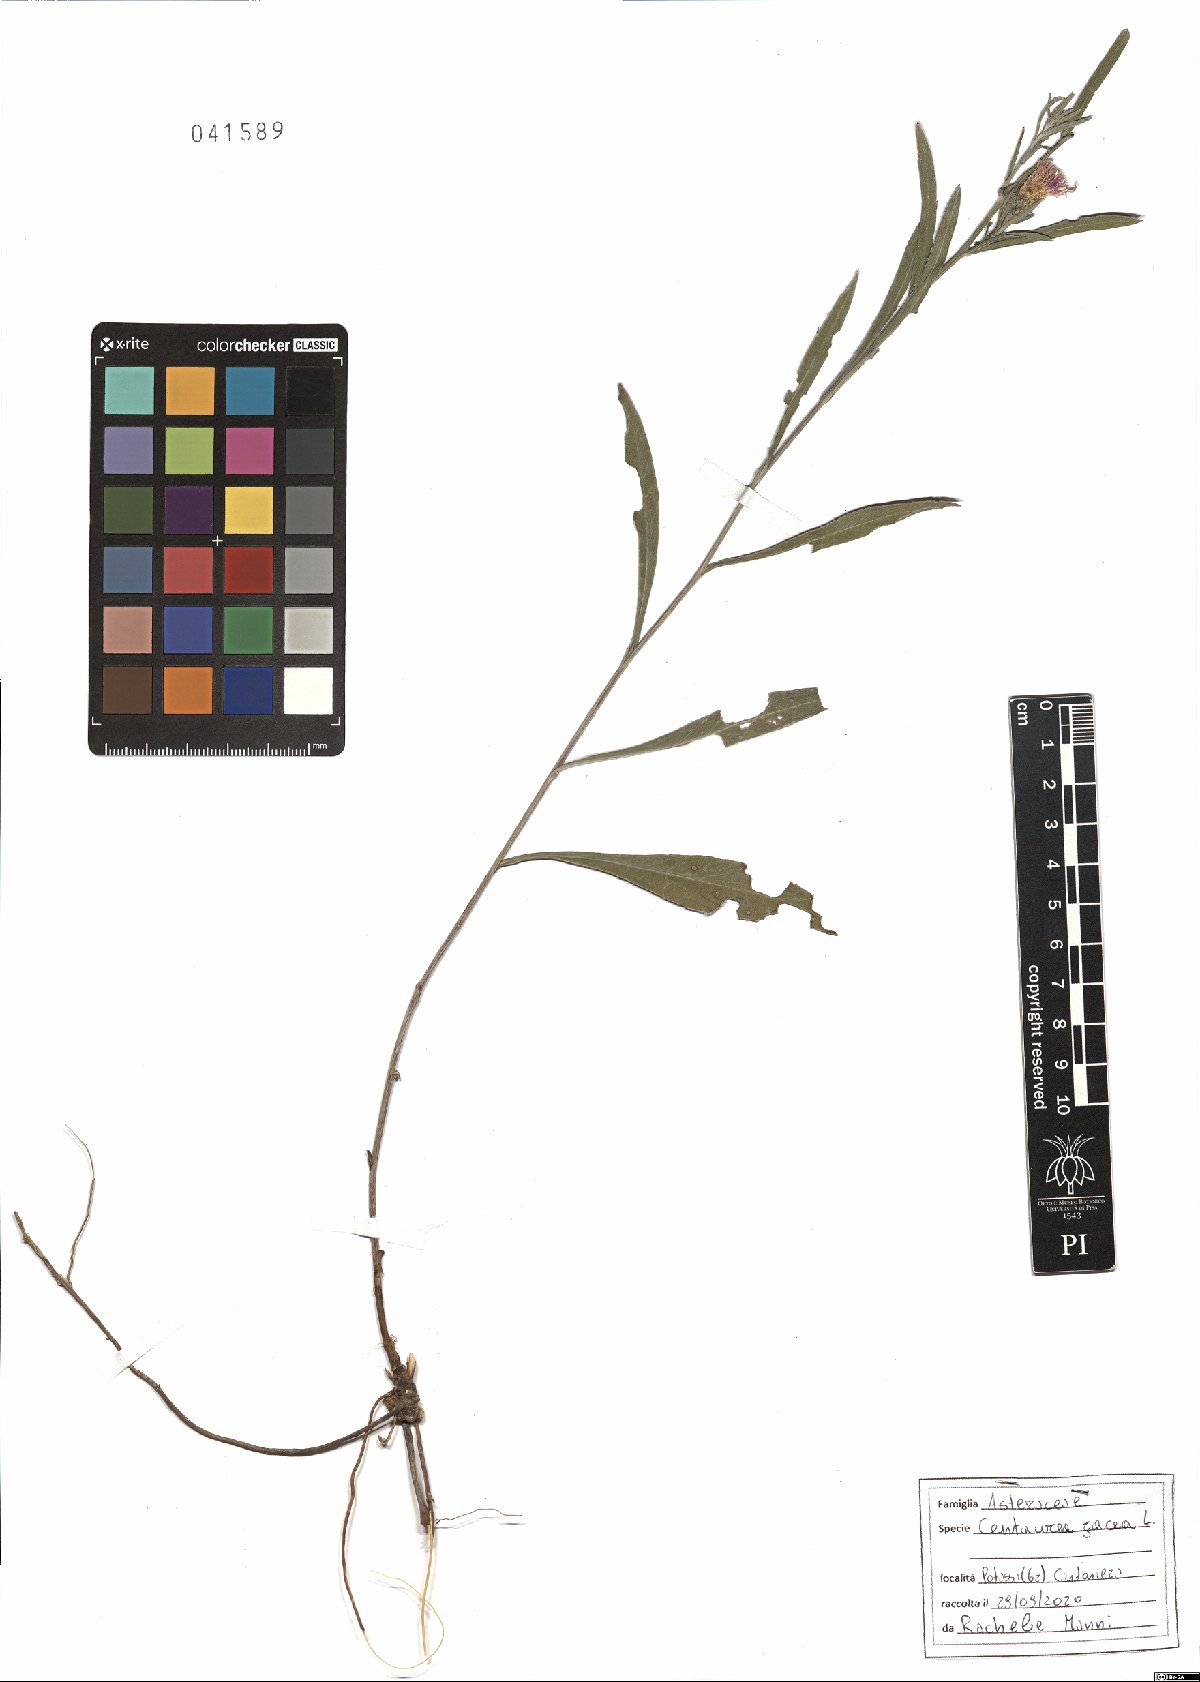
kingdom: Plantae
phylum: Tracheophyta
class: Magnoliopsida
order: Asterales
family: Asteraceae
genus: Centaurea
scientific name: Centaurea jacea
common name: Brown knapweed
